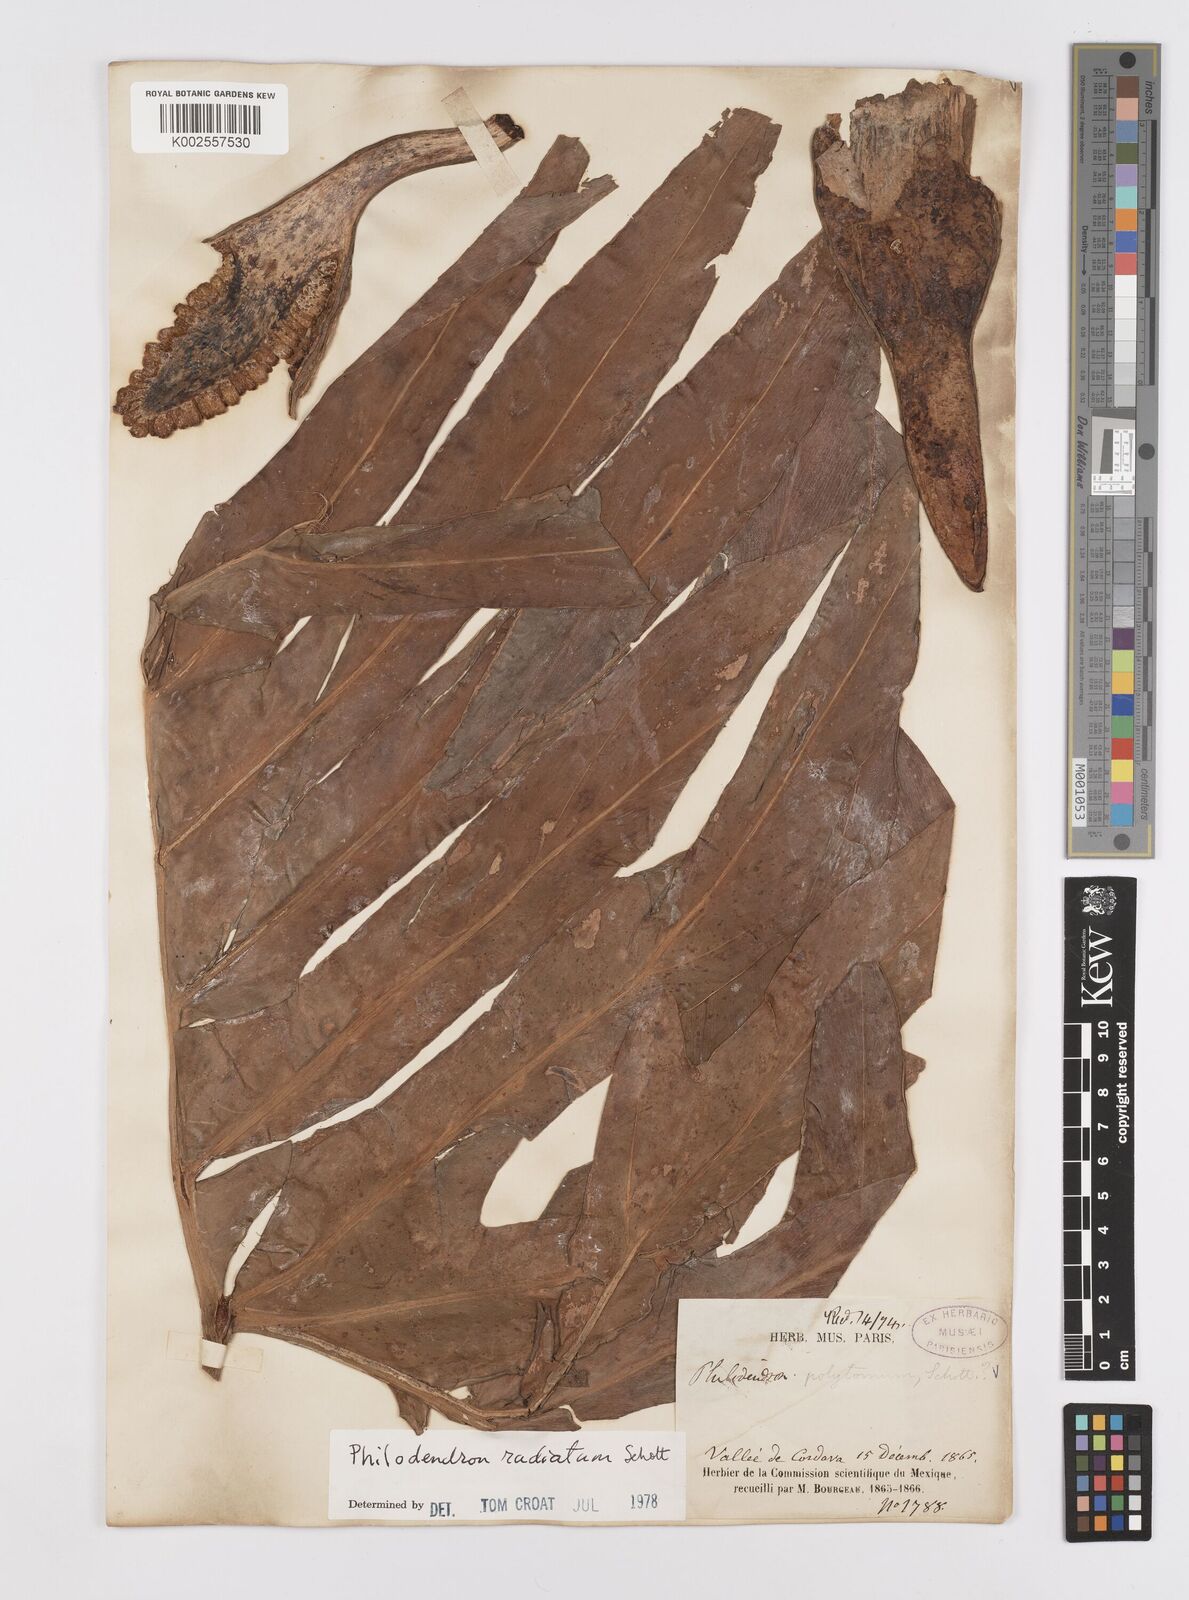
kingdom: Plantae
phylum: Tracheophyta
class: Liliopsida
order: Alismatales
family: Araceae
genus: Philodendron
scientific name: Philodendron radiatum
